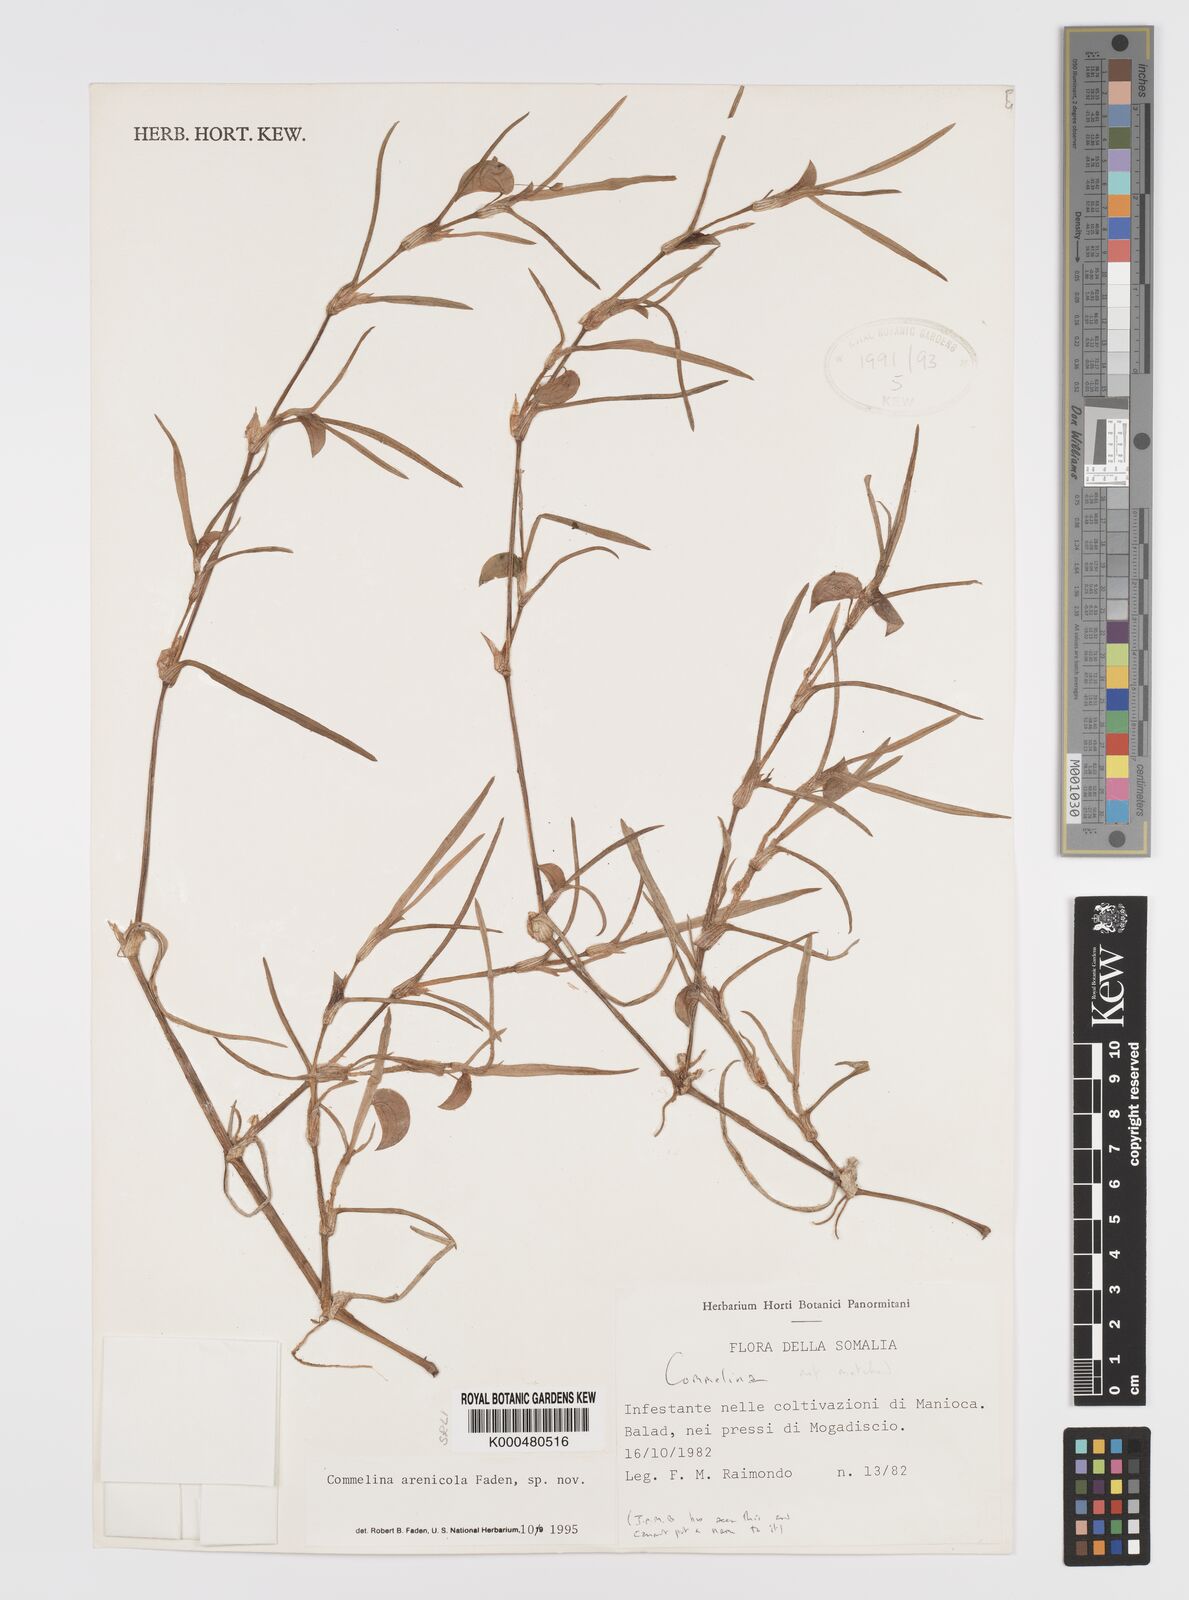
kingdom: Plantae
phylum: Tracheophyta
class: Liliopsida
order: Commelinales
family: Commelinaceae
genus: Commelina
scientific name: Commelina arenicola
